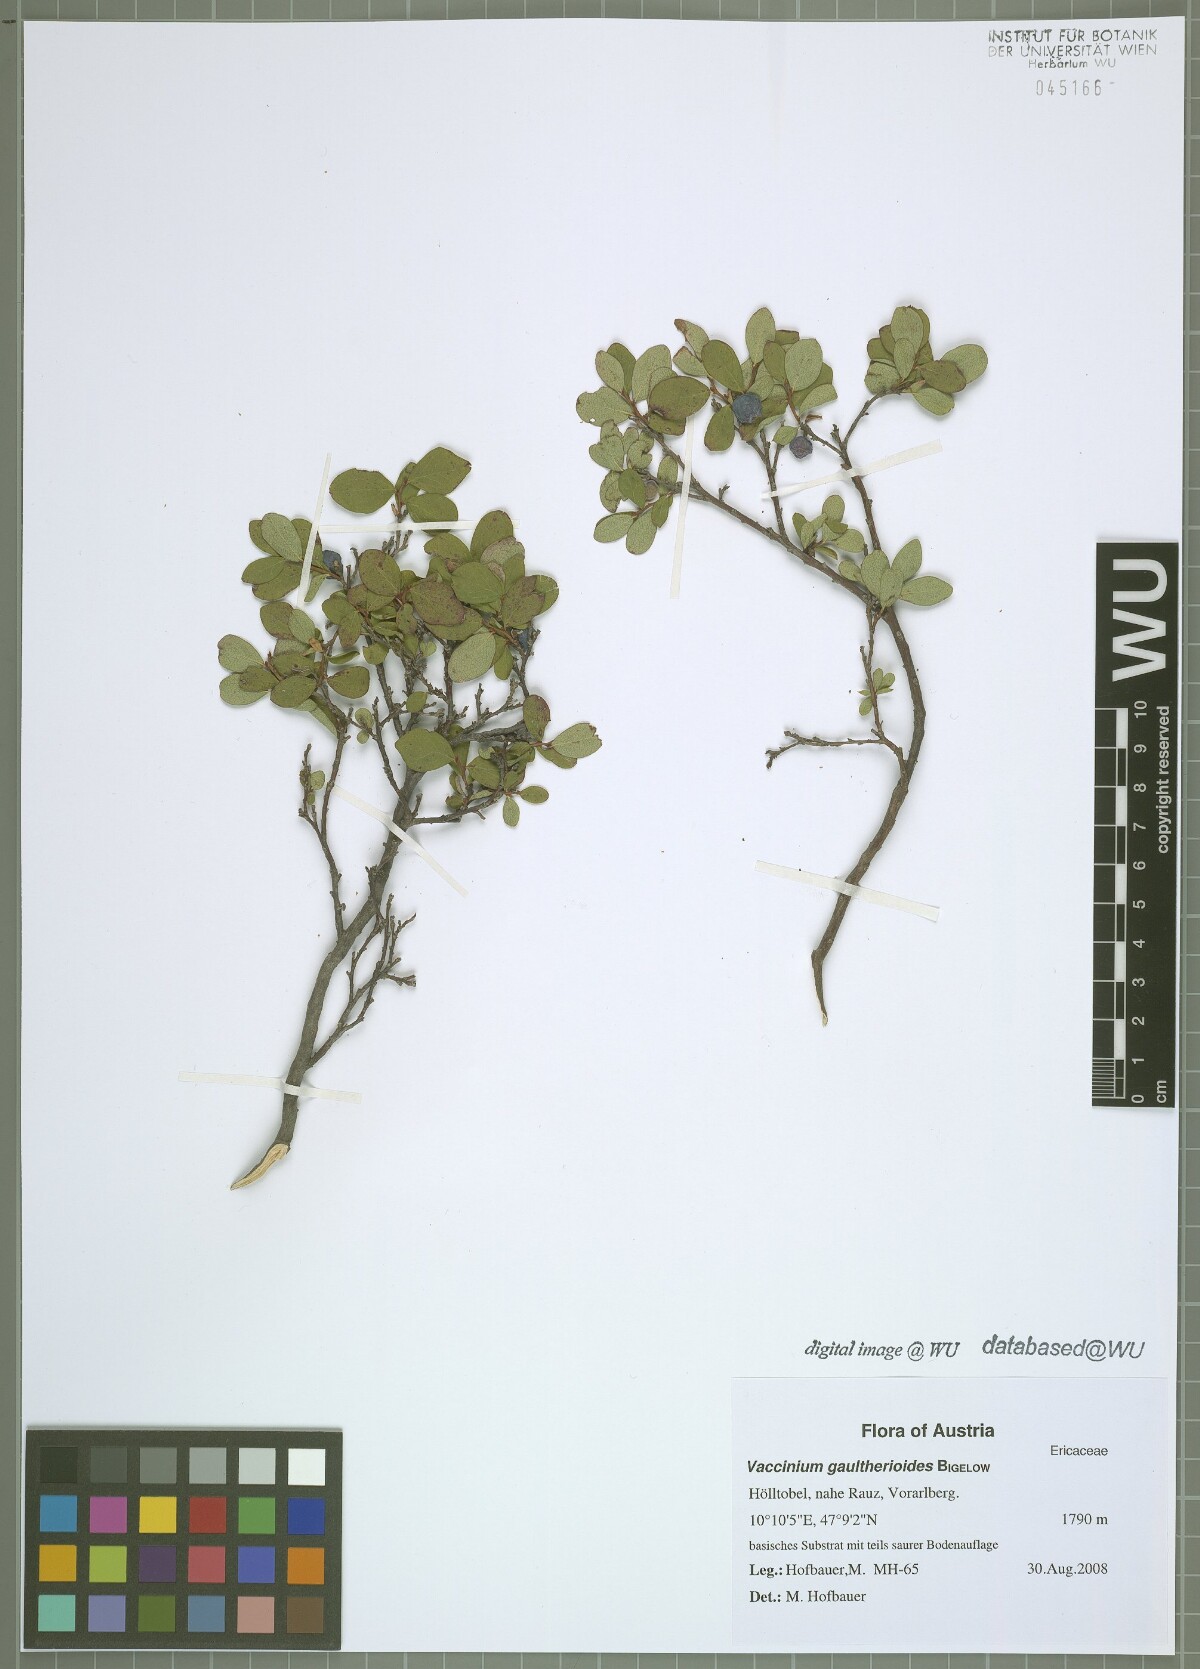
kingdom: Plantae
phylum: Tracheophyta
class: Magnoliopsida
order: Ericales
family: Ericaceae
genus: Vaccinium
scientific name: Vaccinium gaultherioides
